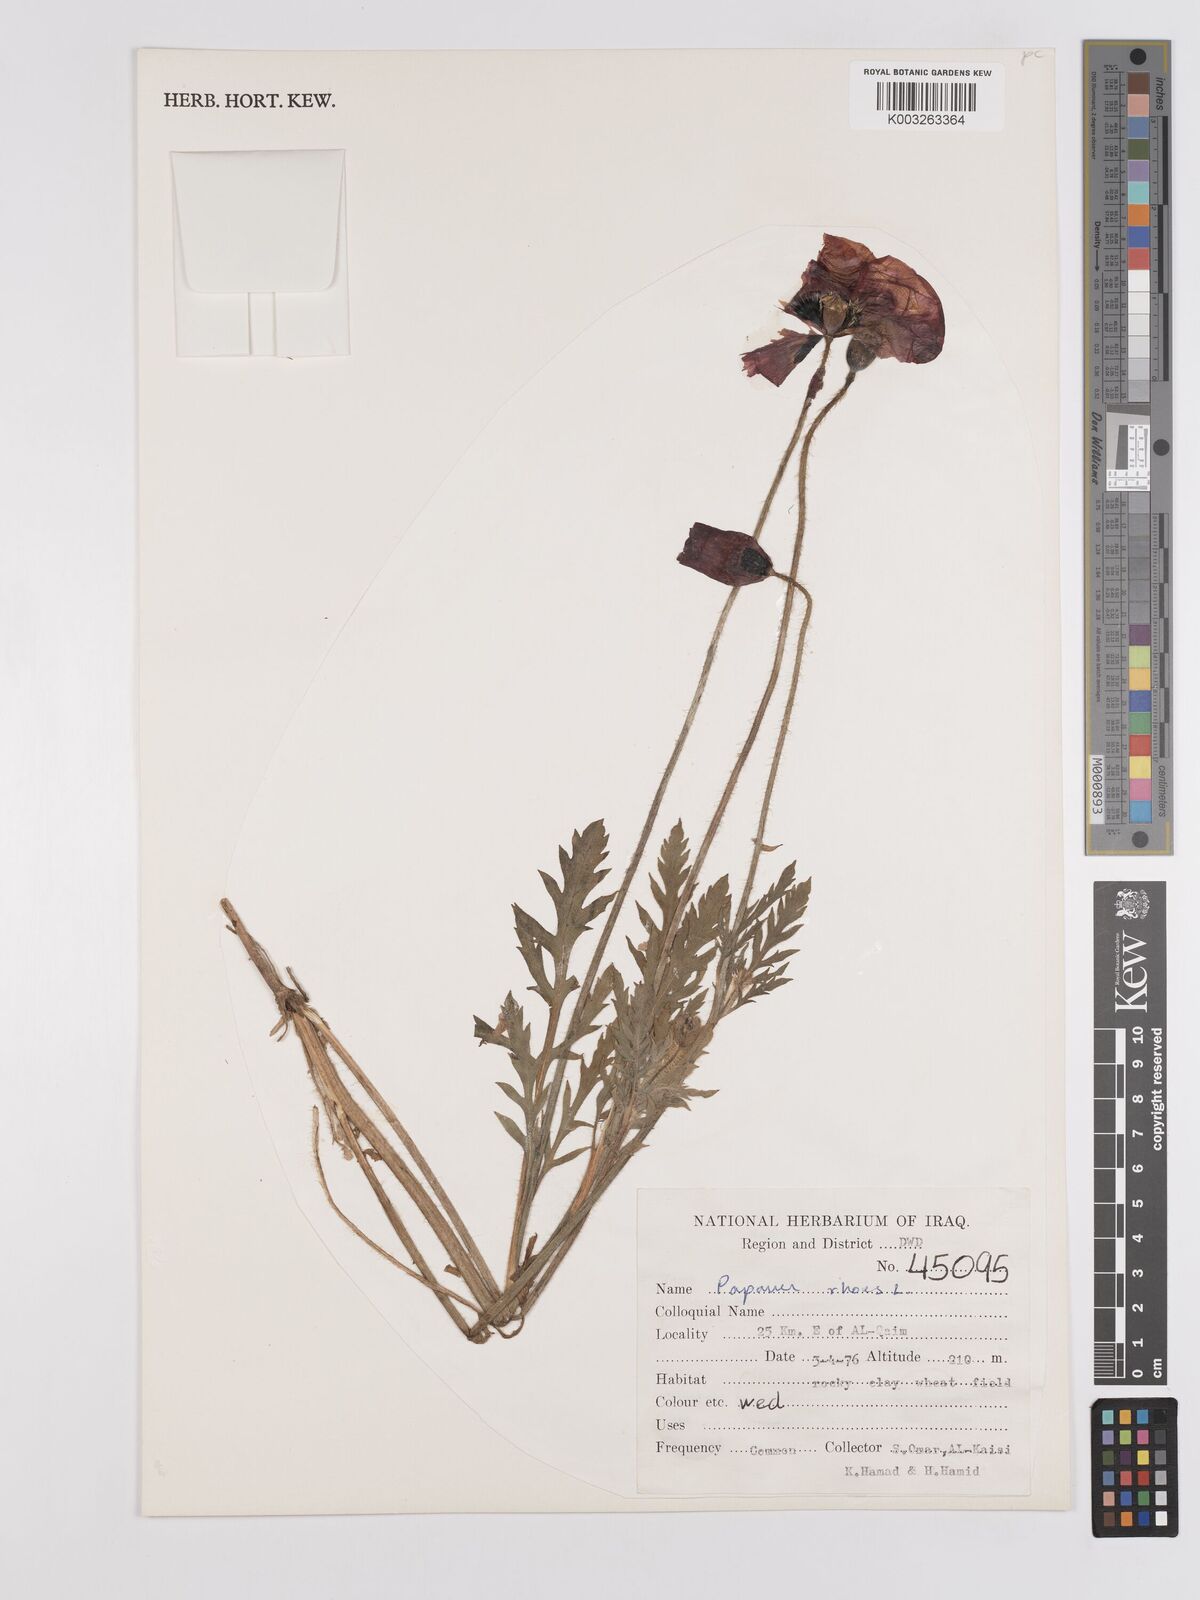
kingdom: Plantae
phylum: Tracheophyta
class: Magnoliopsida
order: Ranunculales
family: Papaveraceae
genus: Papaver
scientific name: Papaver rhoeas
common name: Corn poppy
